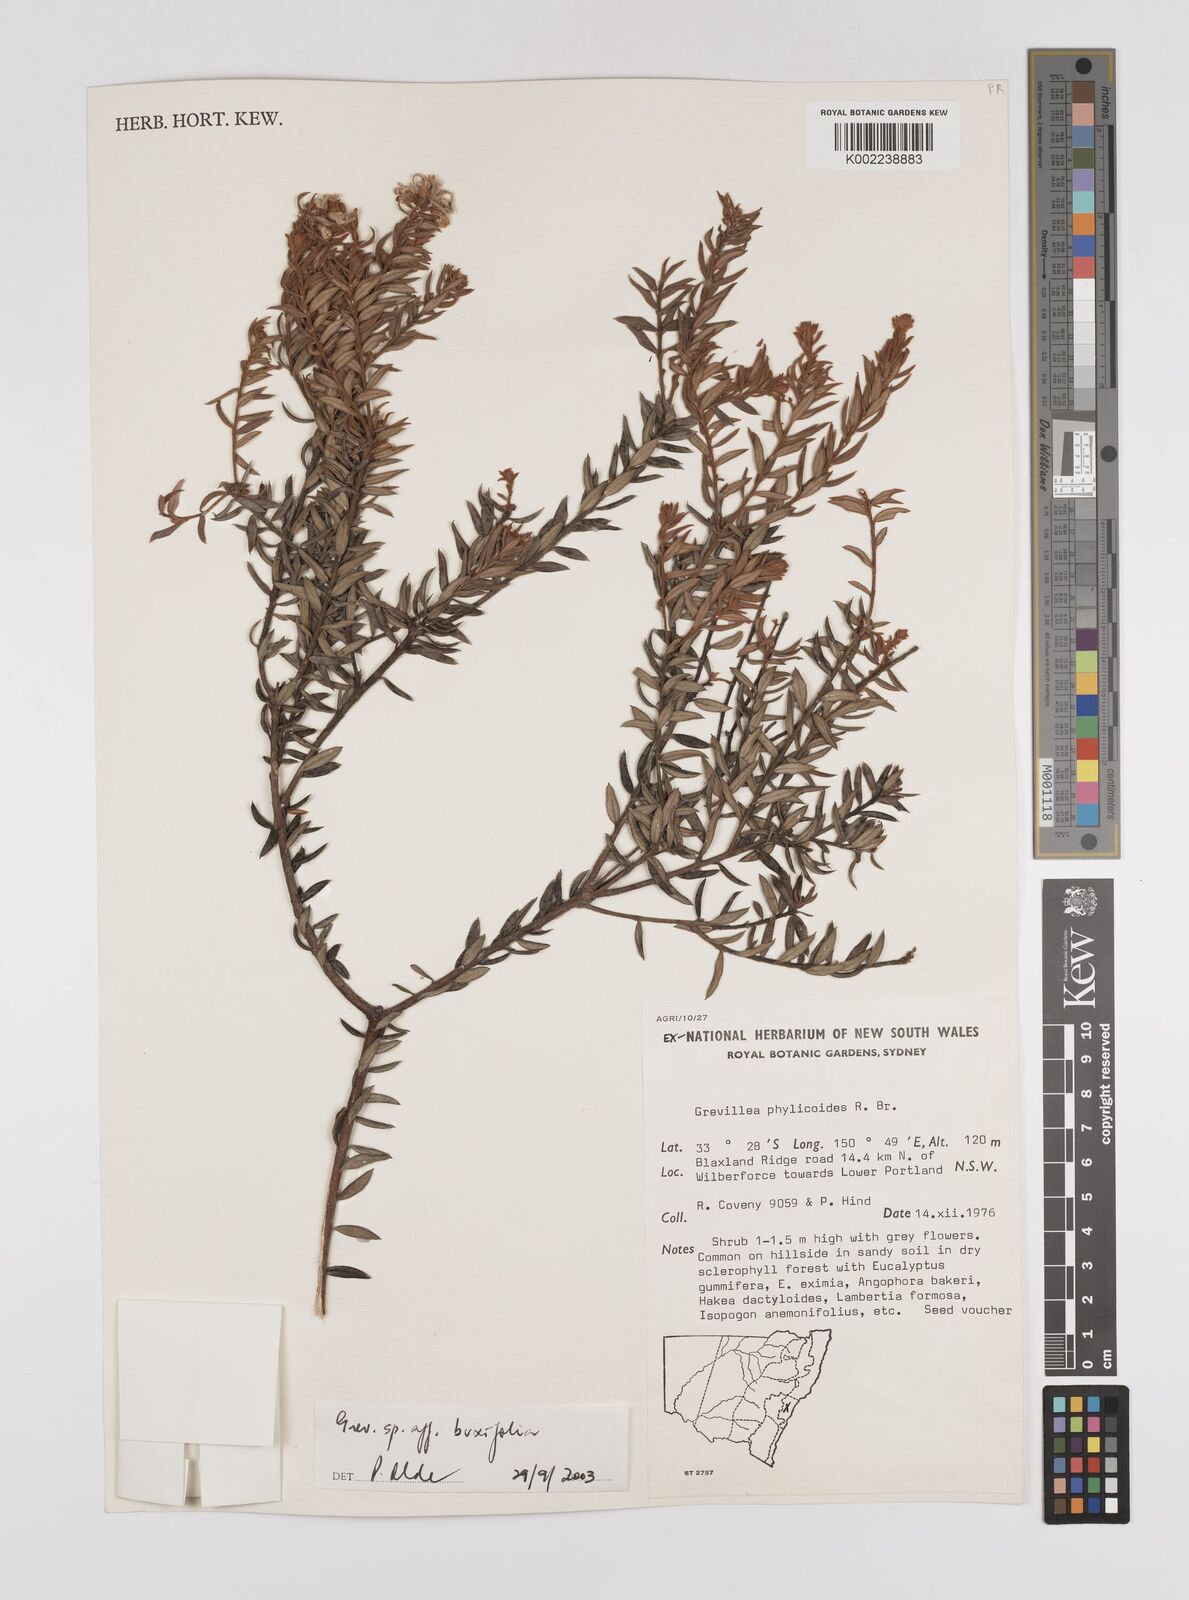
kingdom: Plantae
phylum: Tracheophyta
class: Magnoliopsida
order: Proteales
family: Proteaceae
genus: Grevillea
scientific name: Grevillea buxifolia
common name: Grey spiderflower
